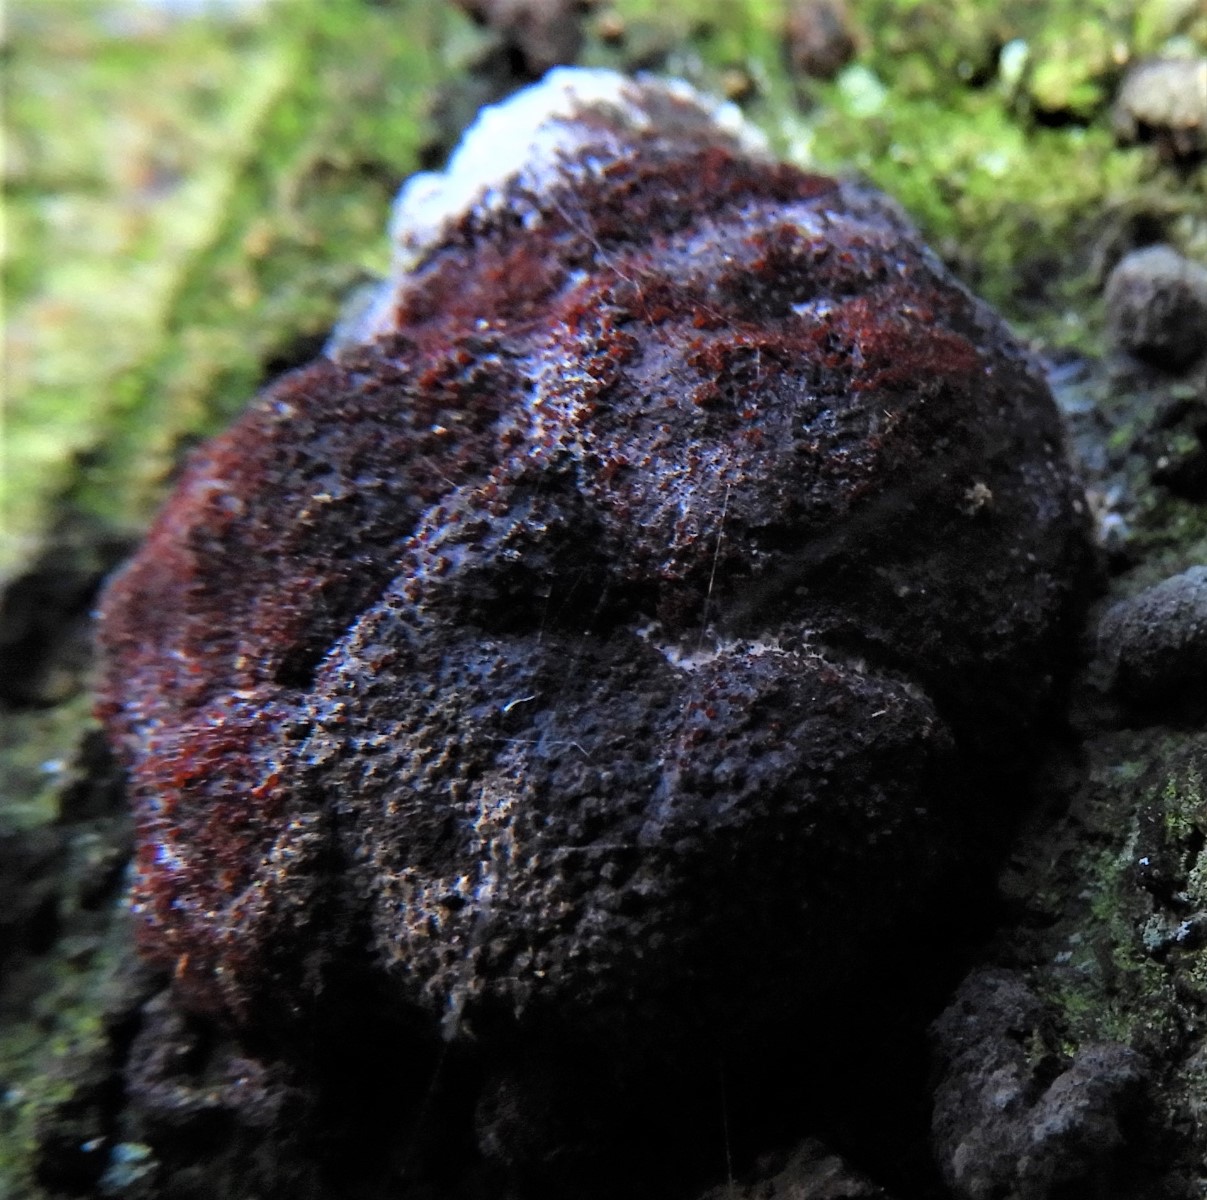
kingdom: Fungi
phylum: Ascomycota
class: Sordariomycetes
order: Hypocreales
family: Nectriaceae
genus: Cosmospora
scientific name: Cosmospora arxii
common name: kuljordbær-cinnobersvamp
